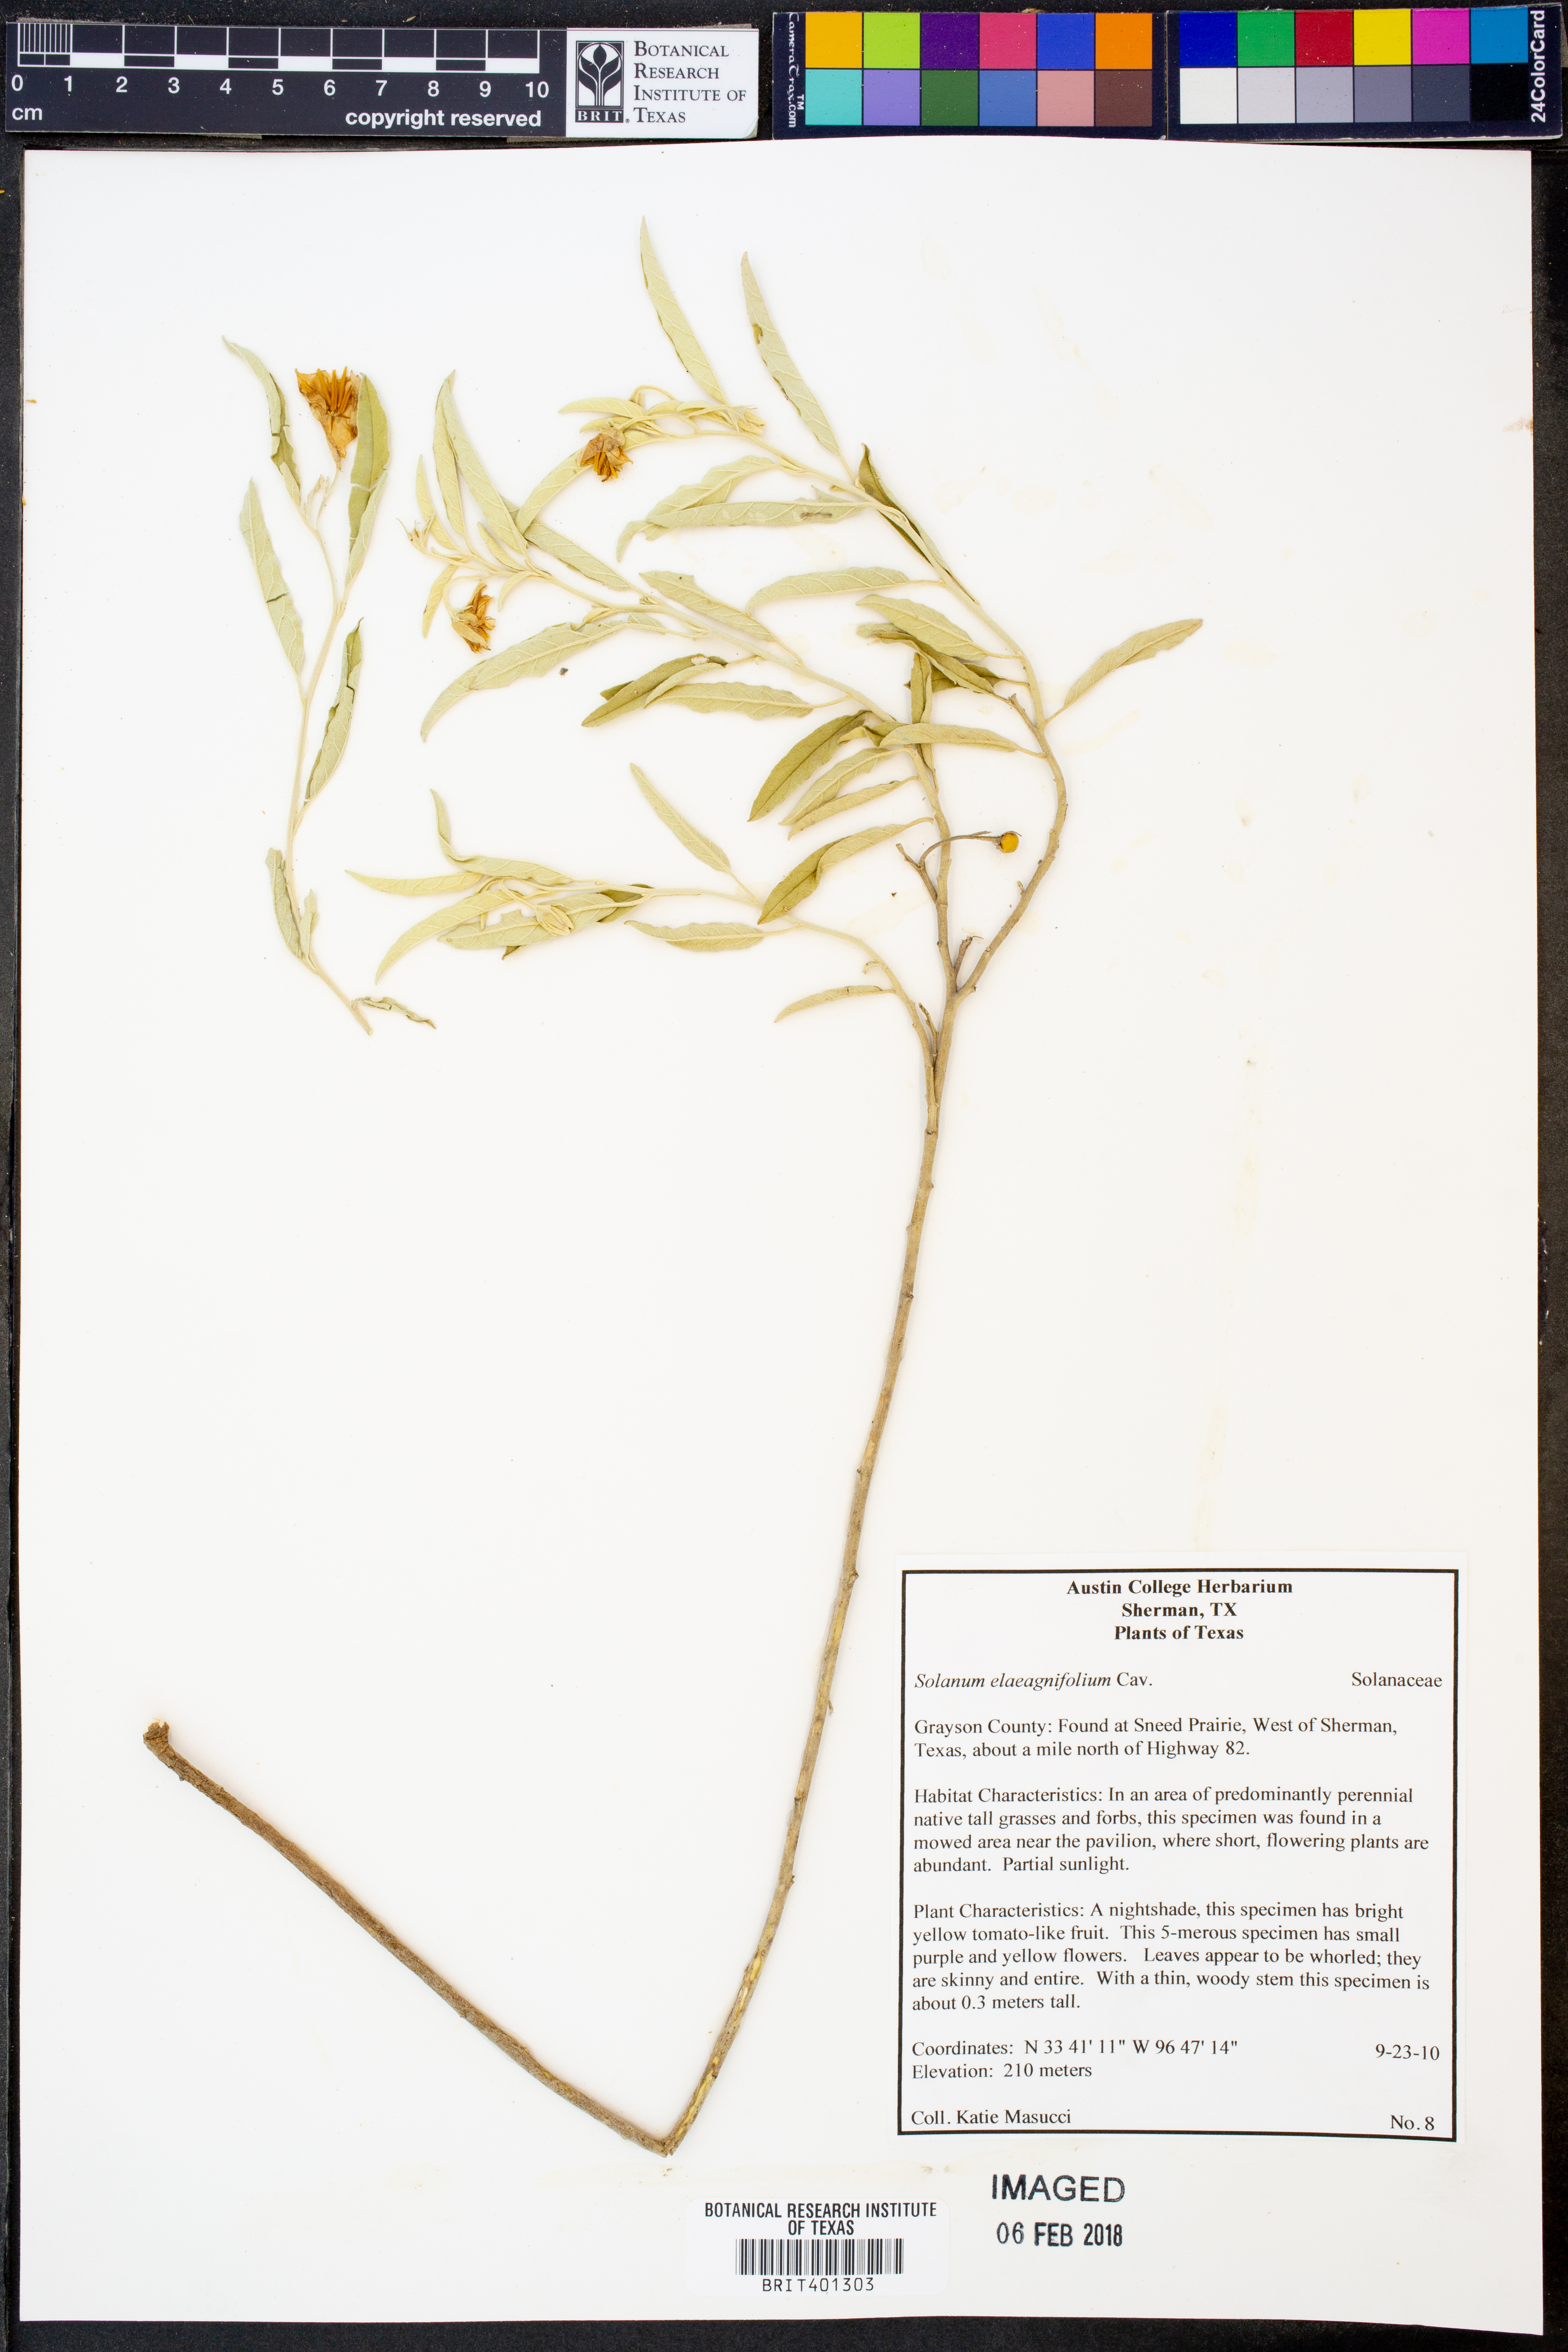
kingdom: Plantae
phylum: Tracheophyta
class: Magnoliopsida
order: Solanales
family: Solanaceae
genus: Solanum
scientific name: Solanum elaeagnifolium
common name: Silverleaf nightshade
